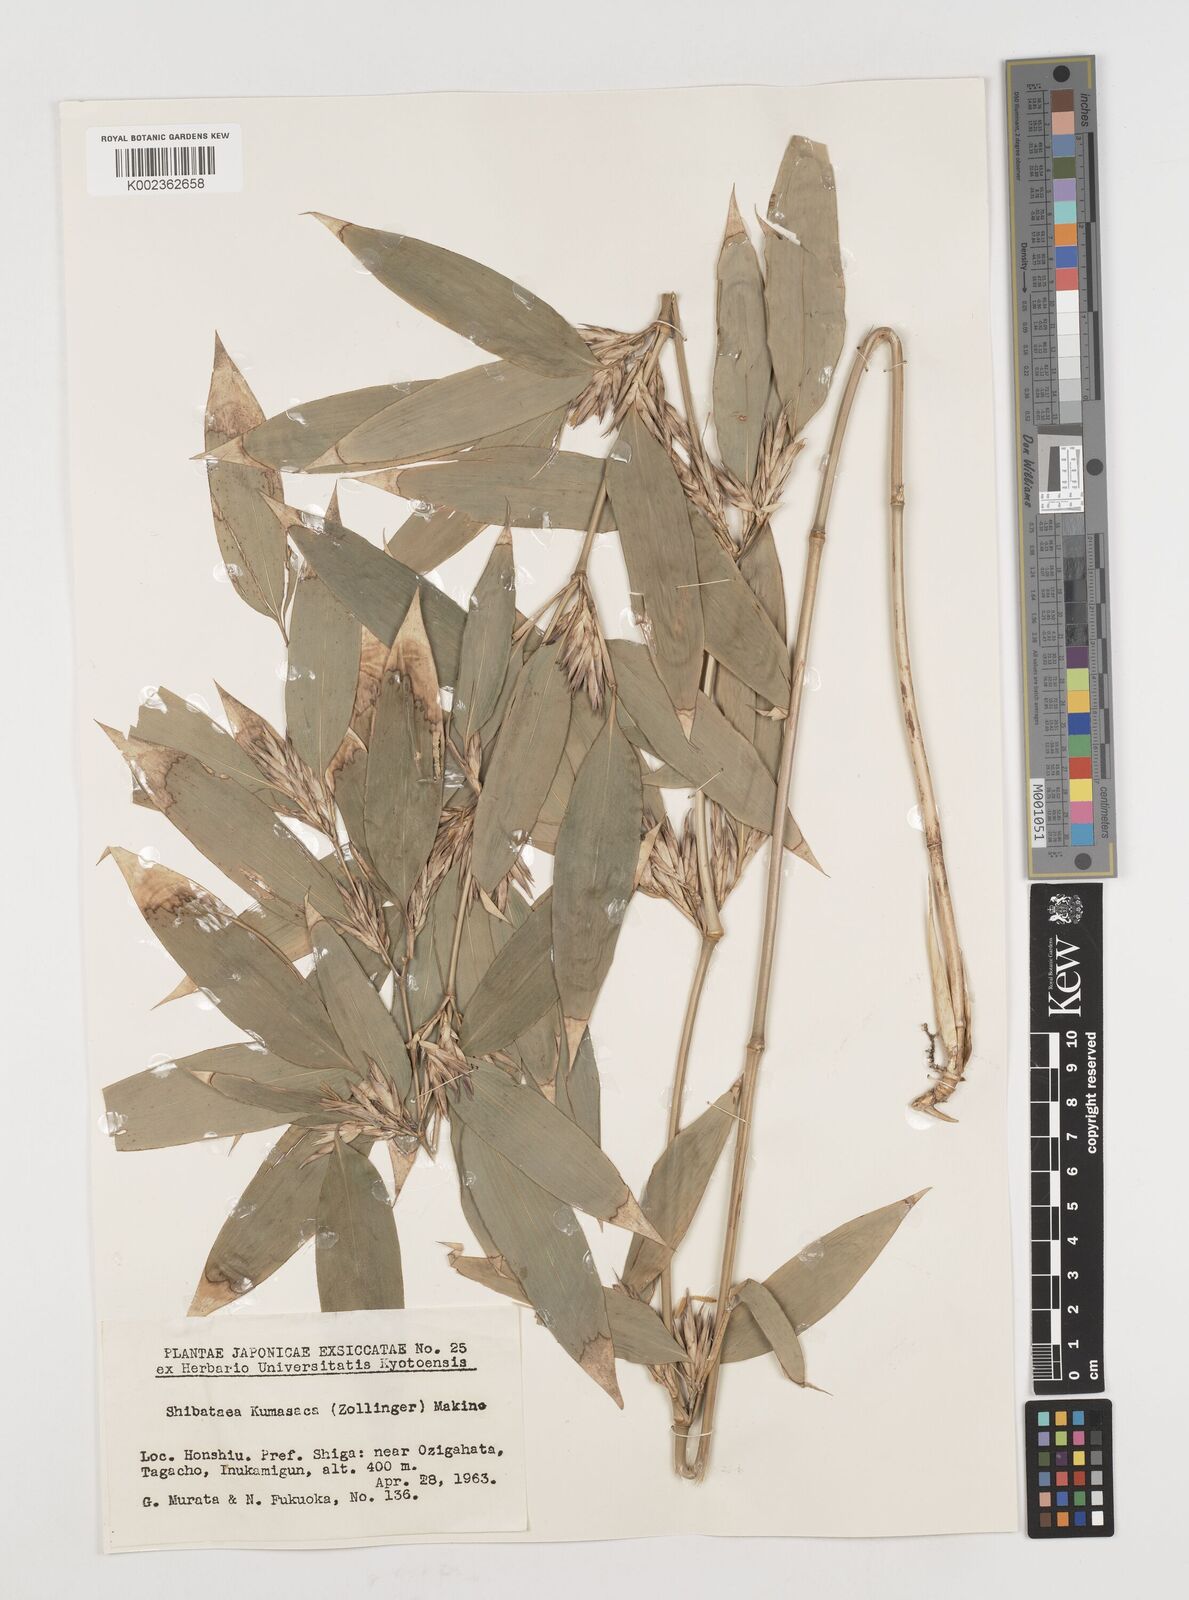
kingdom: Plantae
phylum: Tracheophyta
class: Liliopsida
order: Poales
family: Poaceae
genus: Shibataea
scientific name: Shibataea kumasasa
